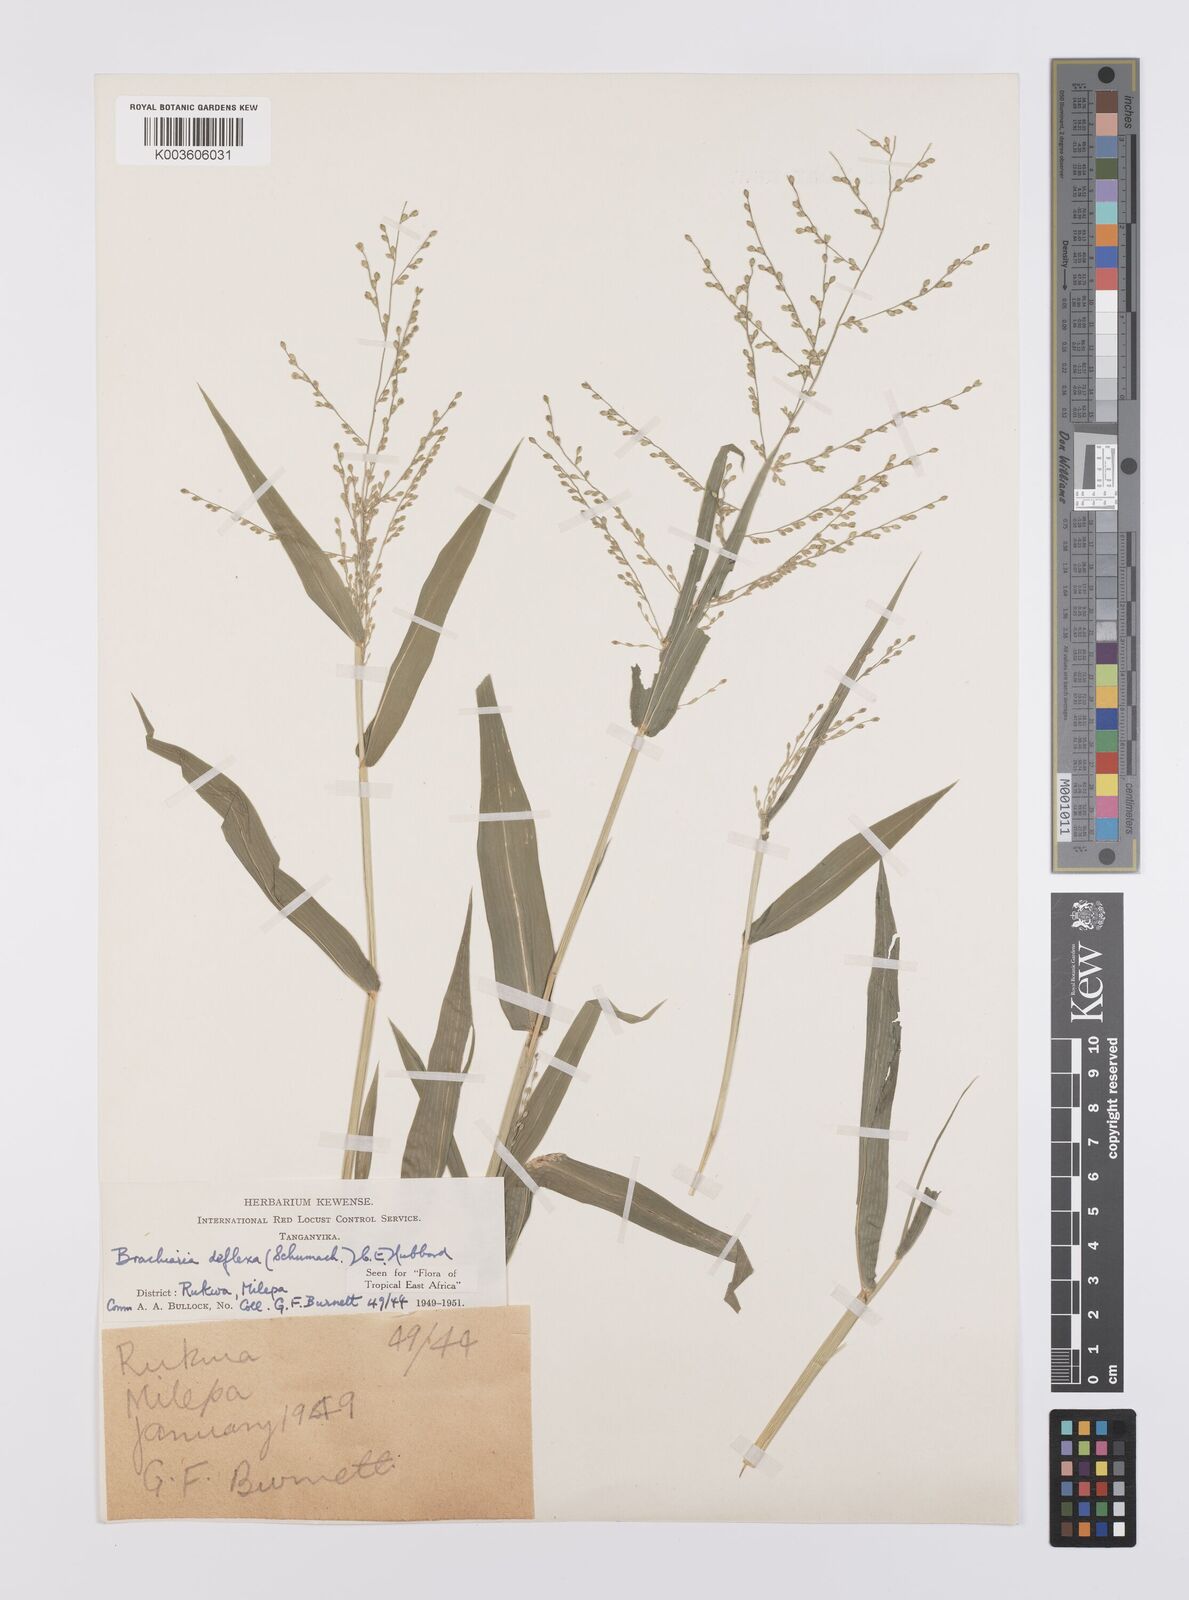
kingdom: Plantae
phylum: Tracheophyta
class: Liliopsida
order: Poales
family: Poaceae
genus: Urochloa
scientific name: Urochloa deflexa
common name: Guinea millet
